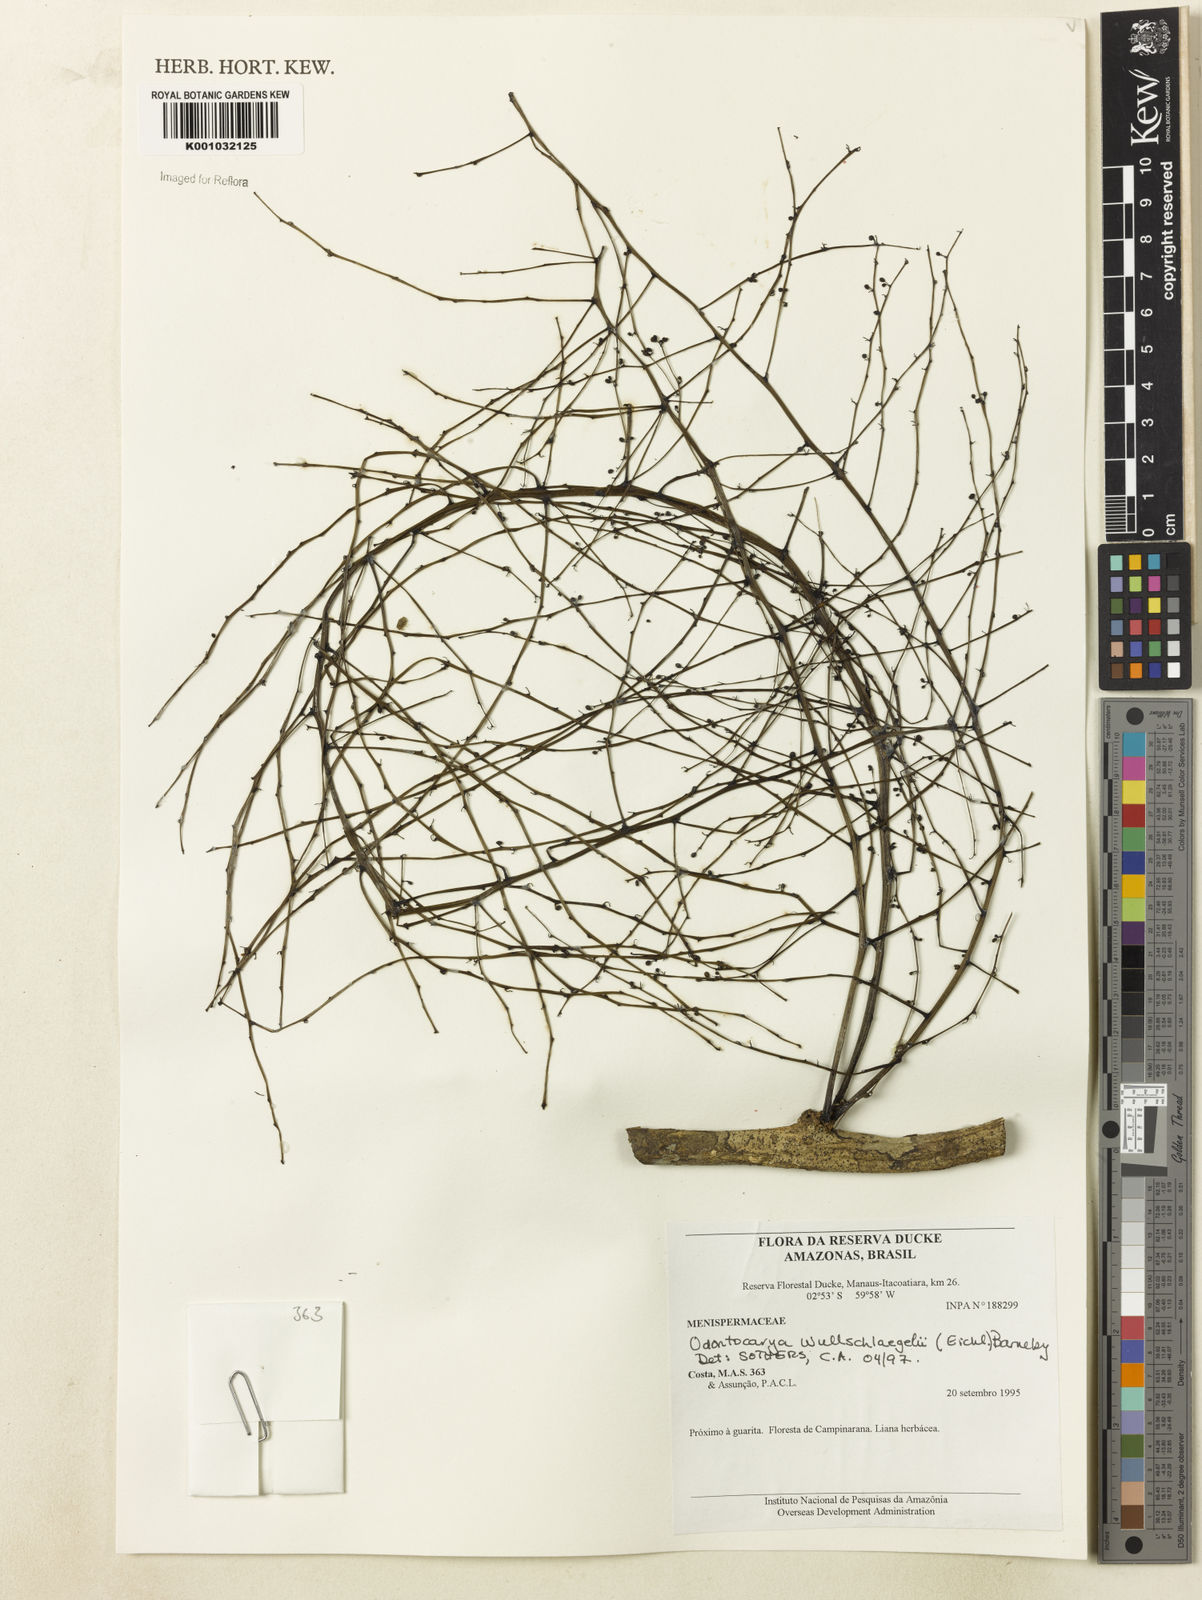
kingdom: Plantae
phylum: Tracheophyta
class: Magnoliopsida
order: Ranunculales
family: Menispermaceae
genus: Odontocarya
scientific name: Odontocarya wullschlaegelii
